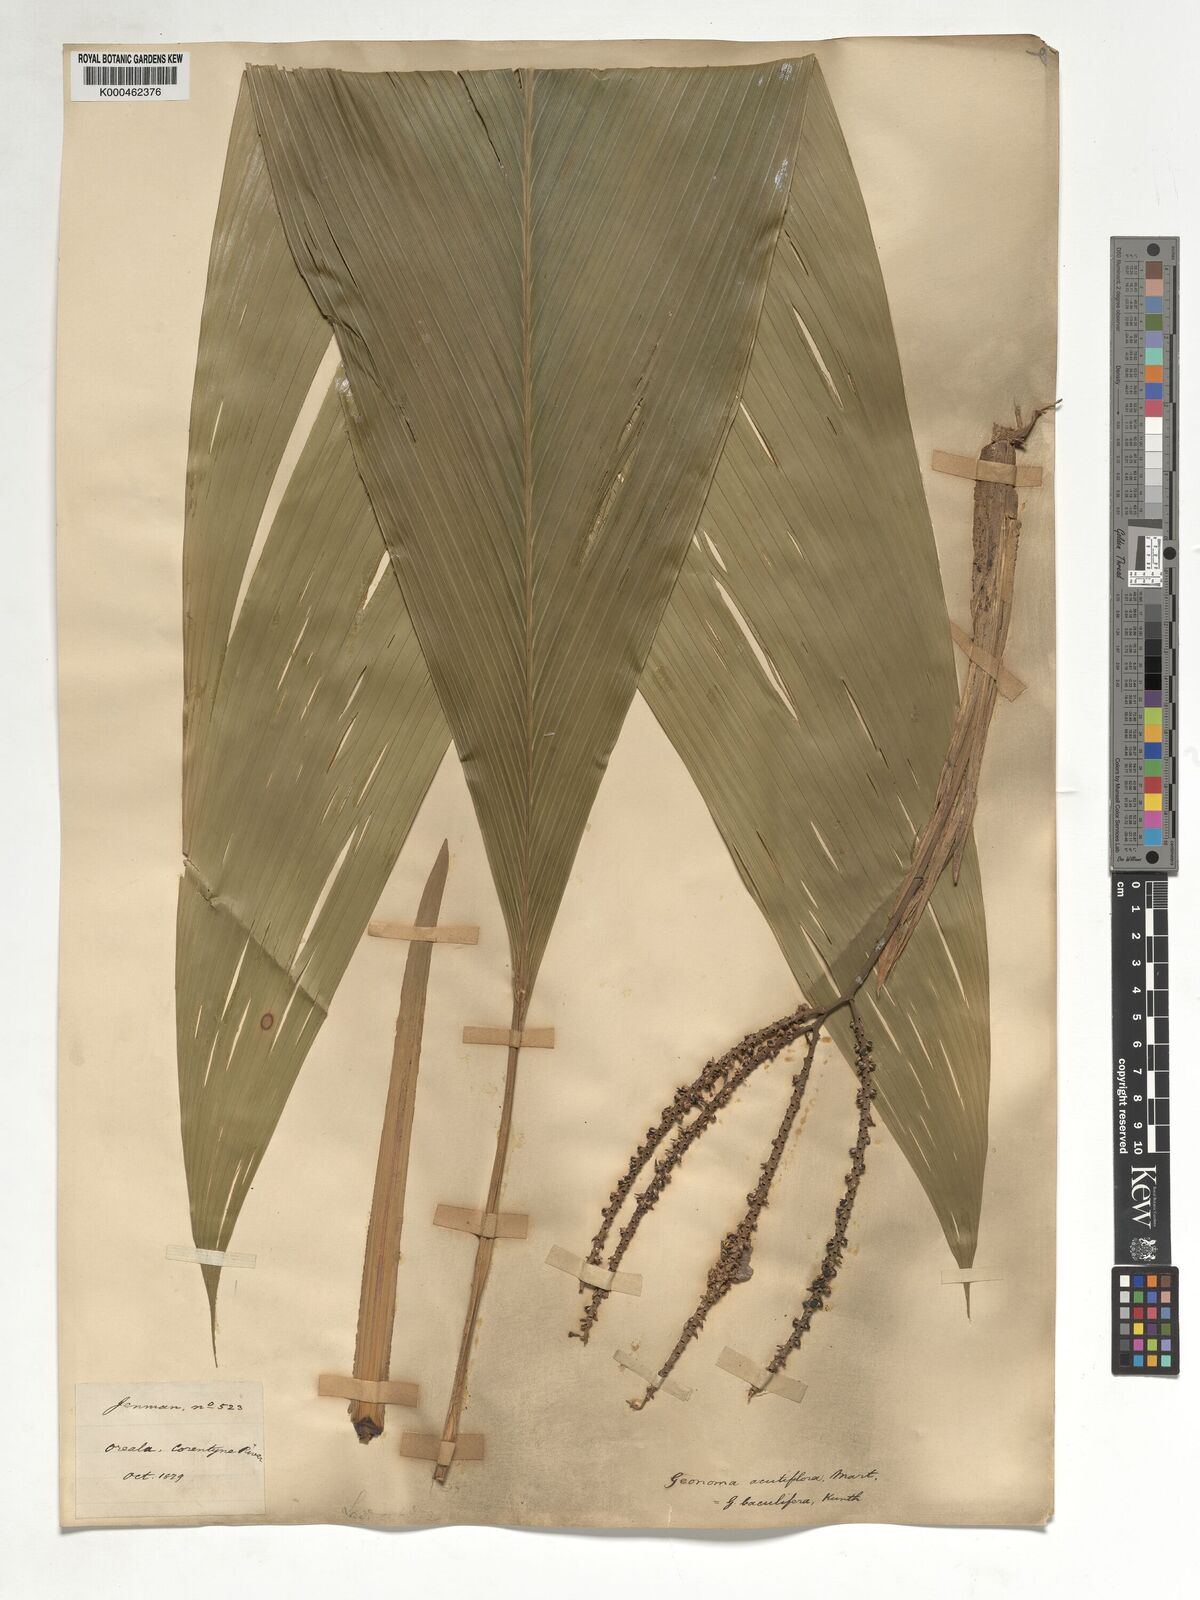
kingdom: Plantae
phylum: Tracheophyta
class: Liliopsida
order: Arecales
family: Arecaceae
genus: Geonoma
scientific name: Geonoma baculifera
